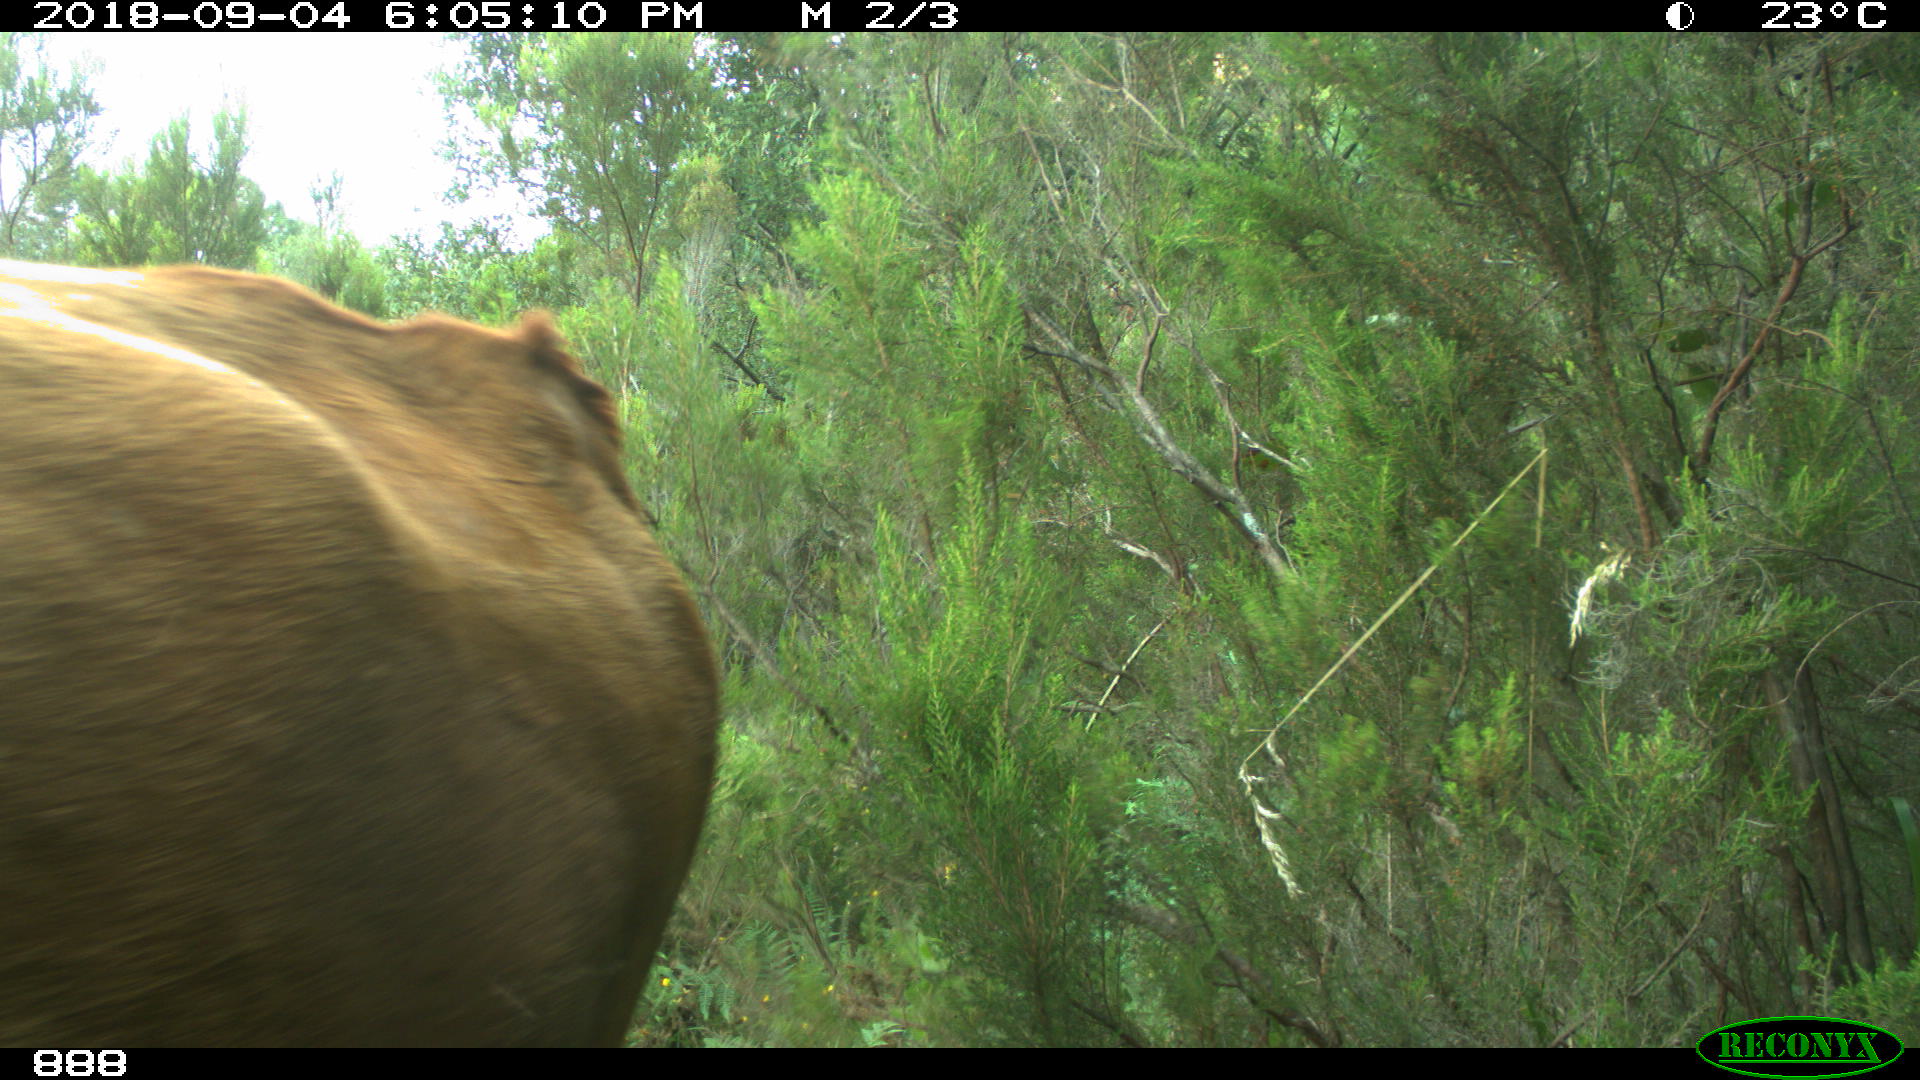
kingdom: Animalia
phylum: Chordata
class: Mammalia
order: Artiodactyla
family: Bovidae
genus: Bos
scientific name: Bos taurus
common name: Domesticated cattle
